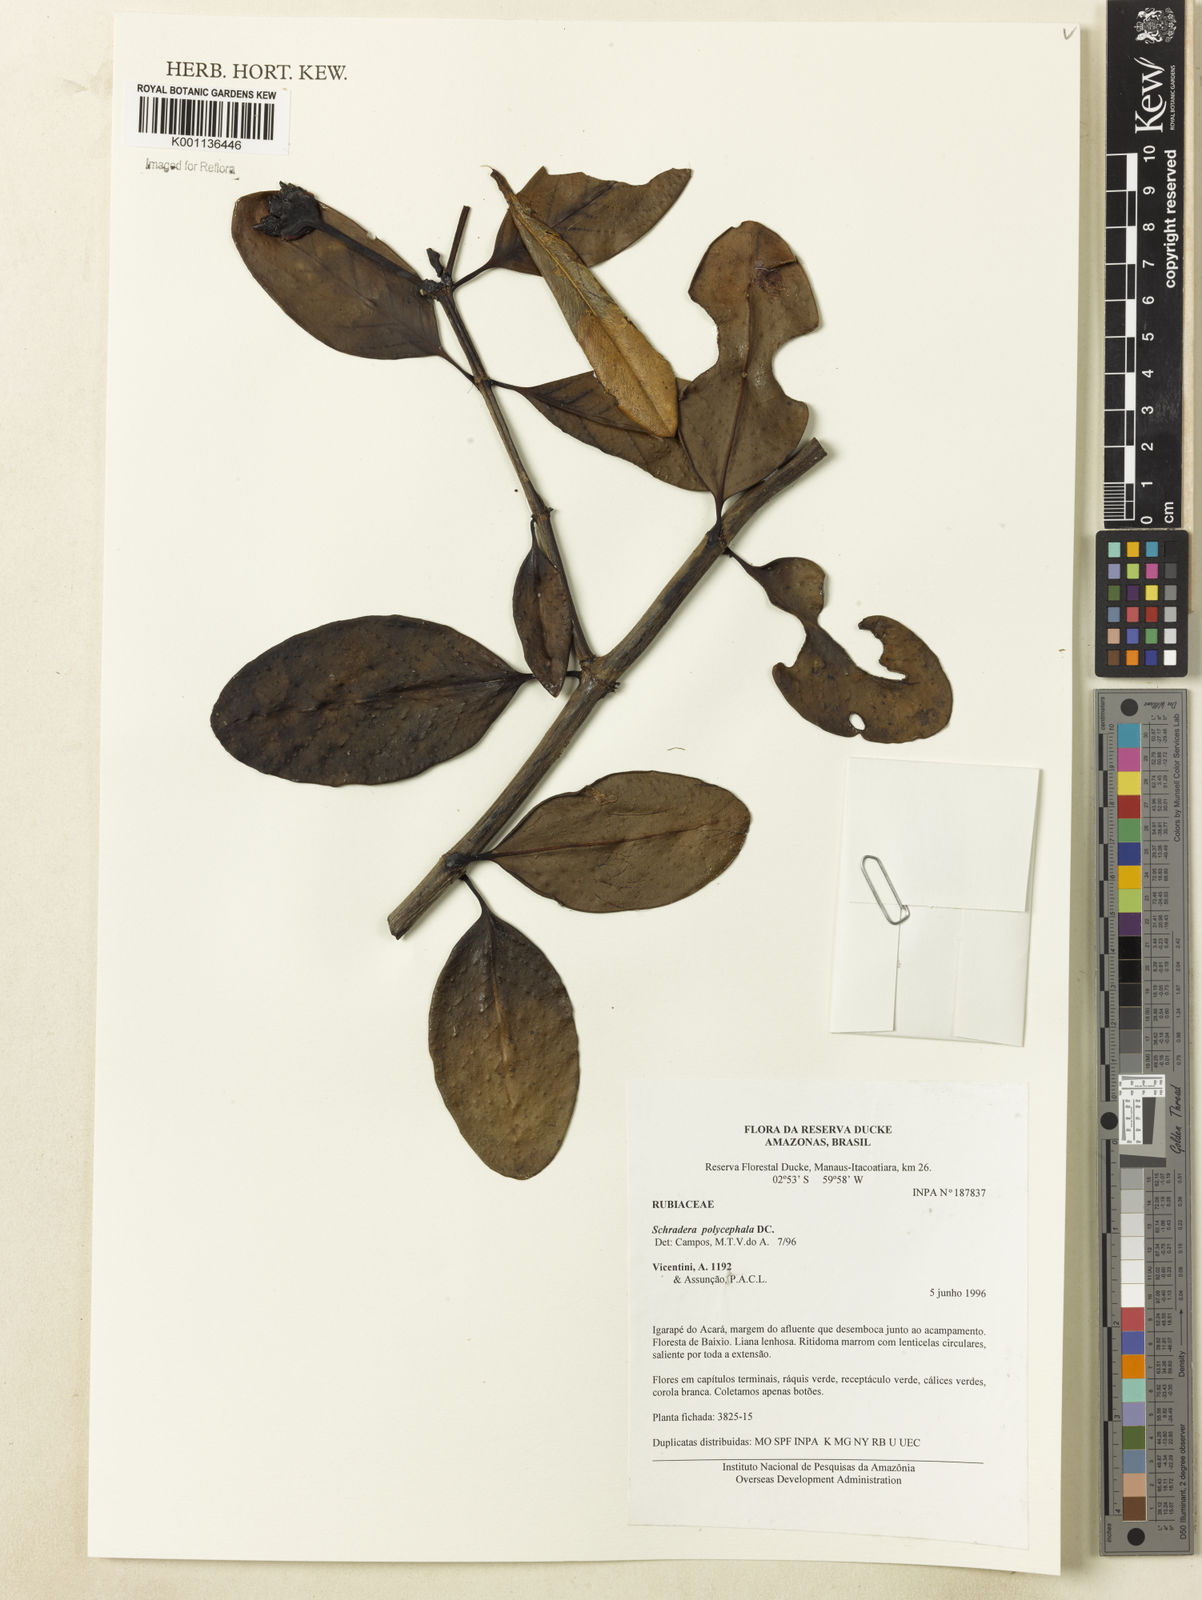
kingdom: Plantae
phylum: Tracheophyta
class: Magnoliopsida
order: Gentianales
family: Rubiaceae
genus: Schradera
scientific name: Schradera polycephala
